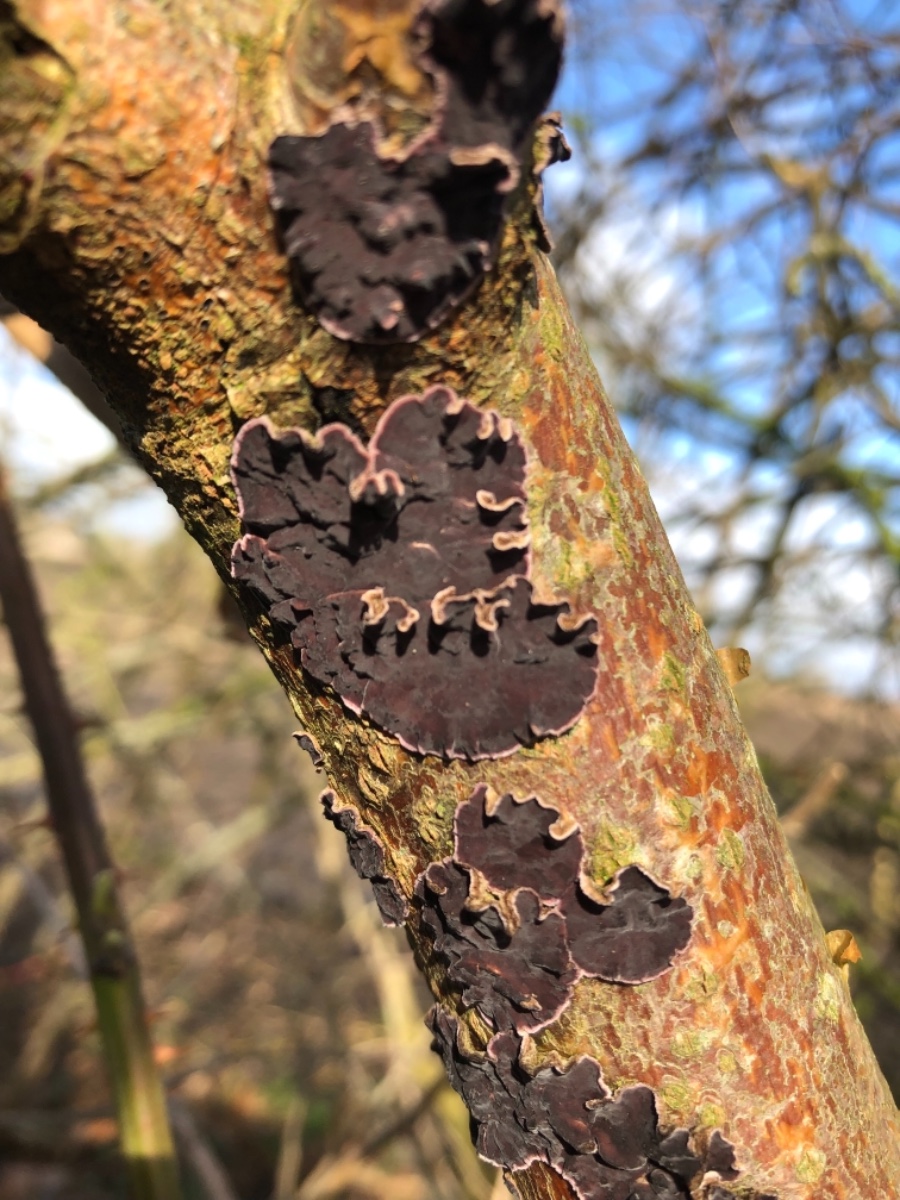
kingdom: Fungi
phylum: Basidiomycota
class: Agaricomycetes
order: Agaricales
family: Cyphellaceae
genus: Chondrostereum
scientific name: Chondrostereum purpureum
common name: purpurlædersvamp
